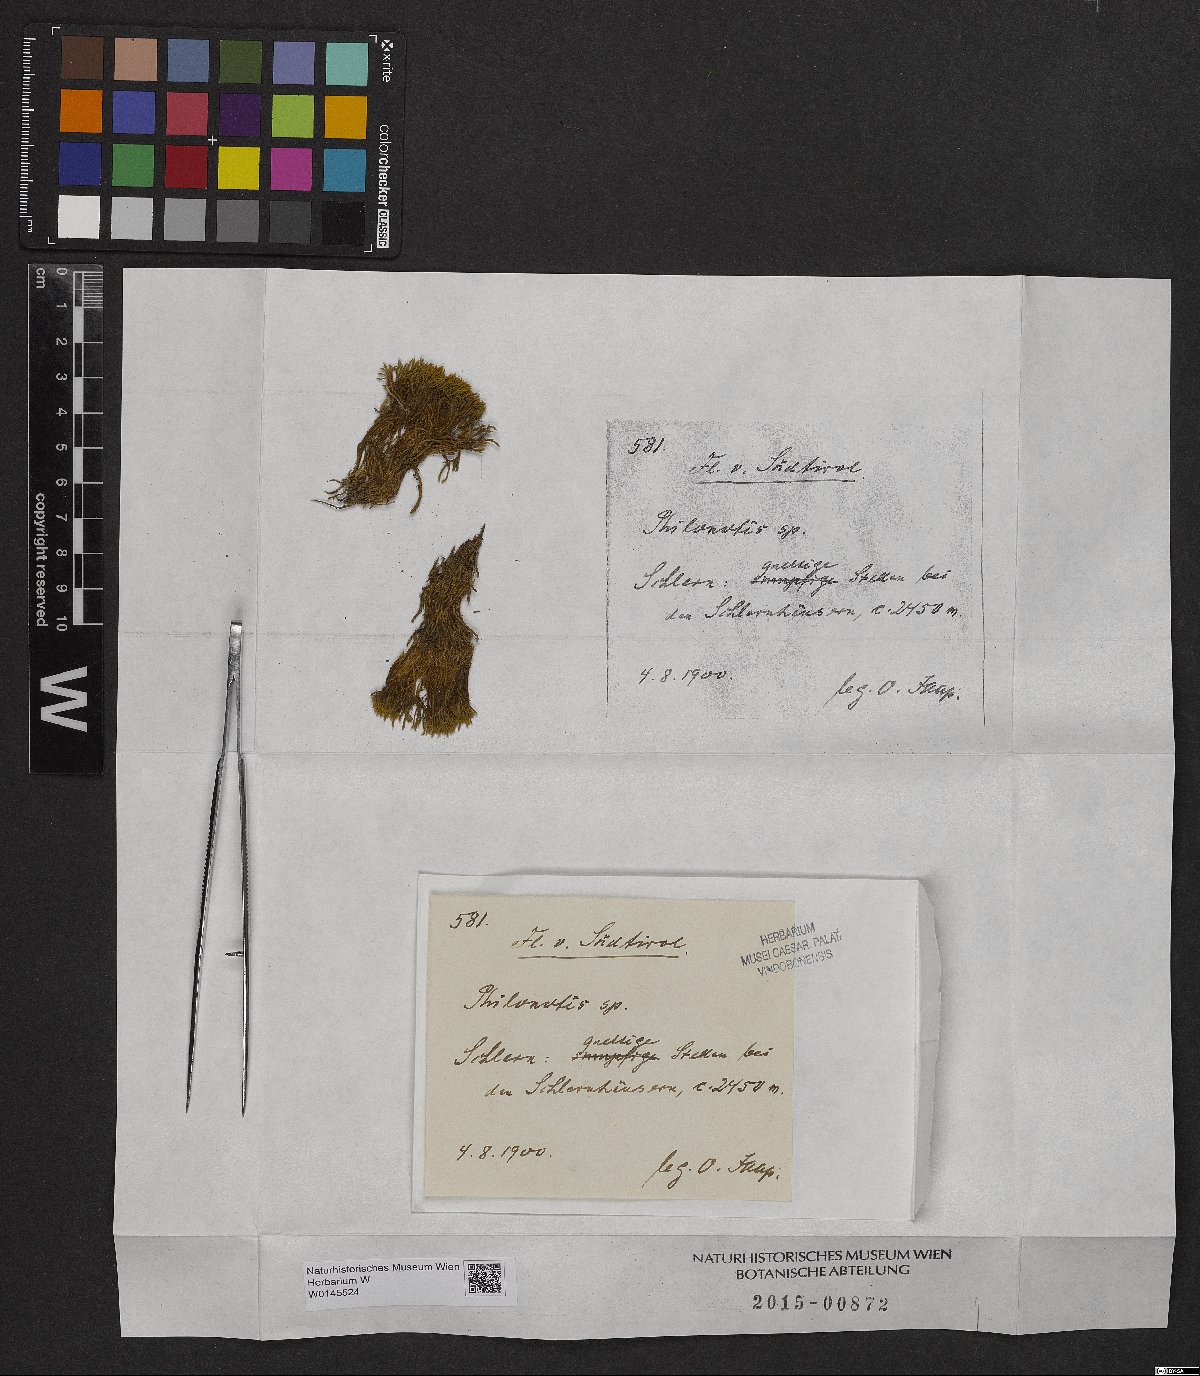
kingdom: Plantae
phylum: Bryophyta
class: Bryopsida
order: Bartramiales
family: Bartramiaceae
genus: Philonotis
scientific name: Philonotis
